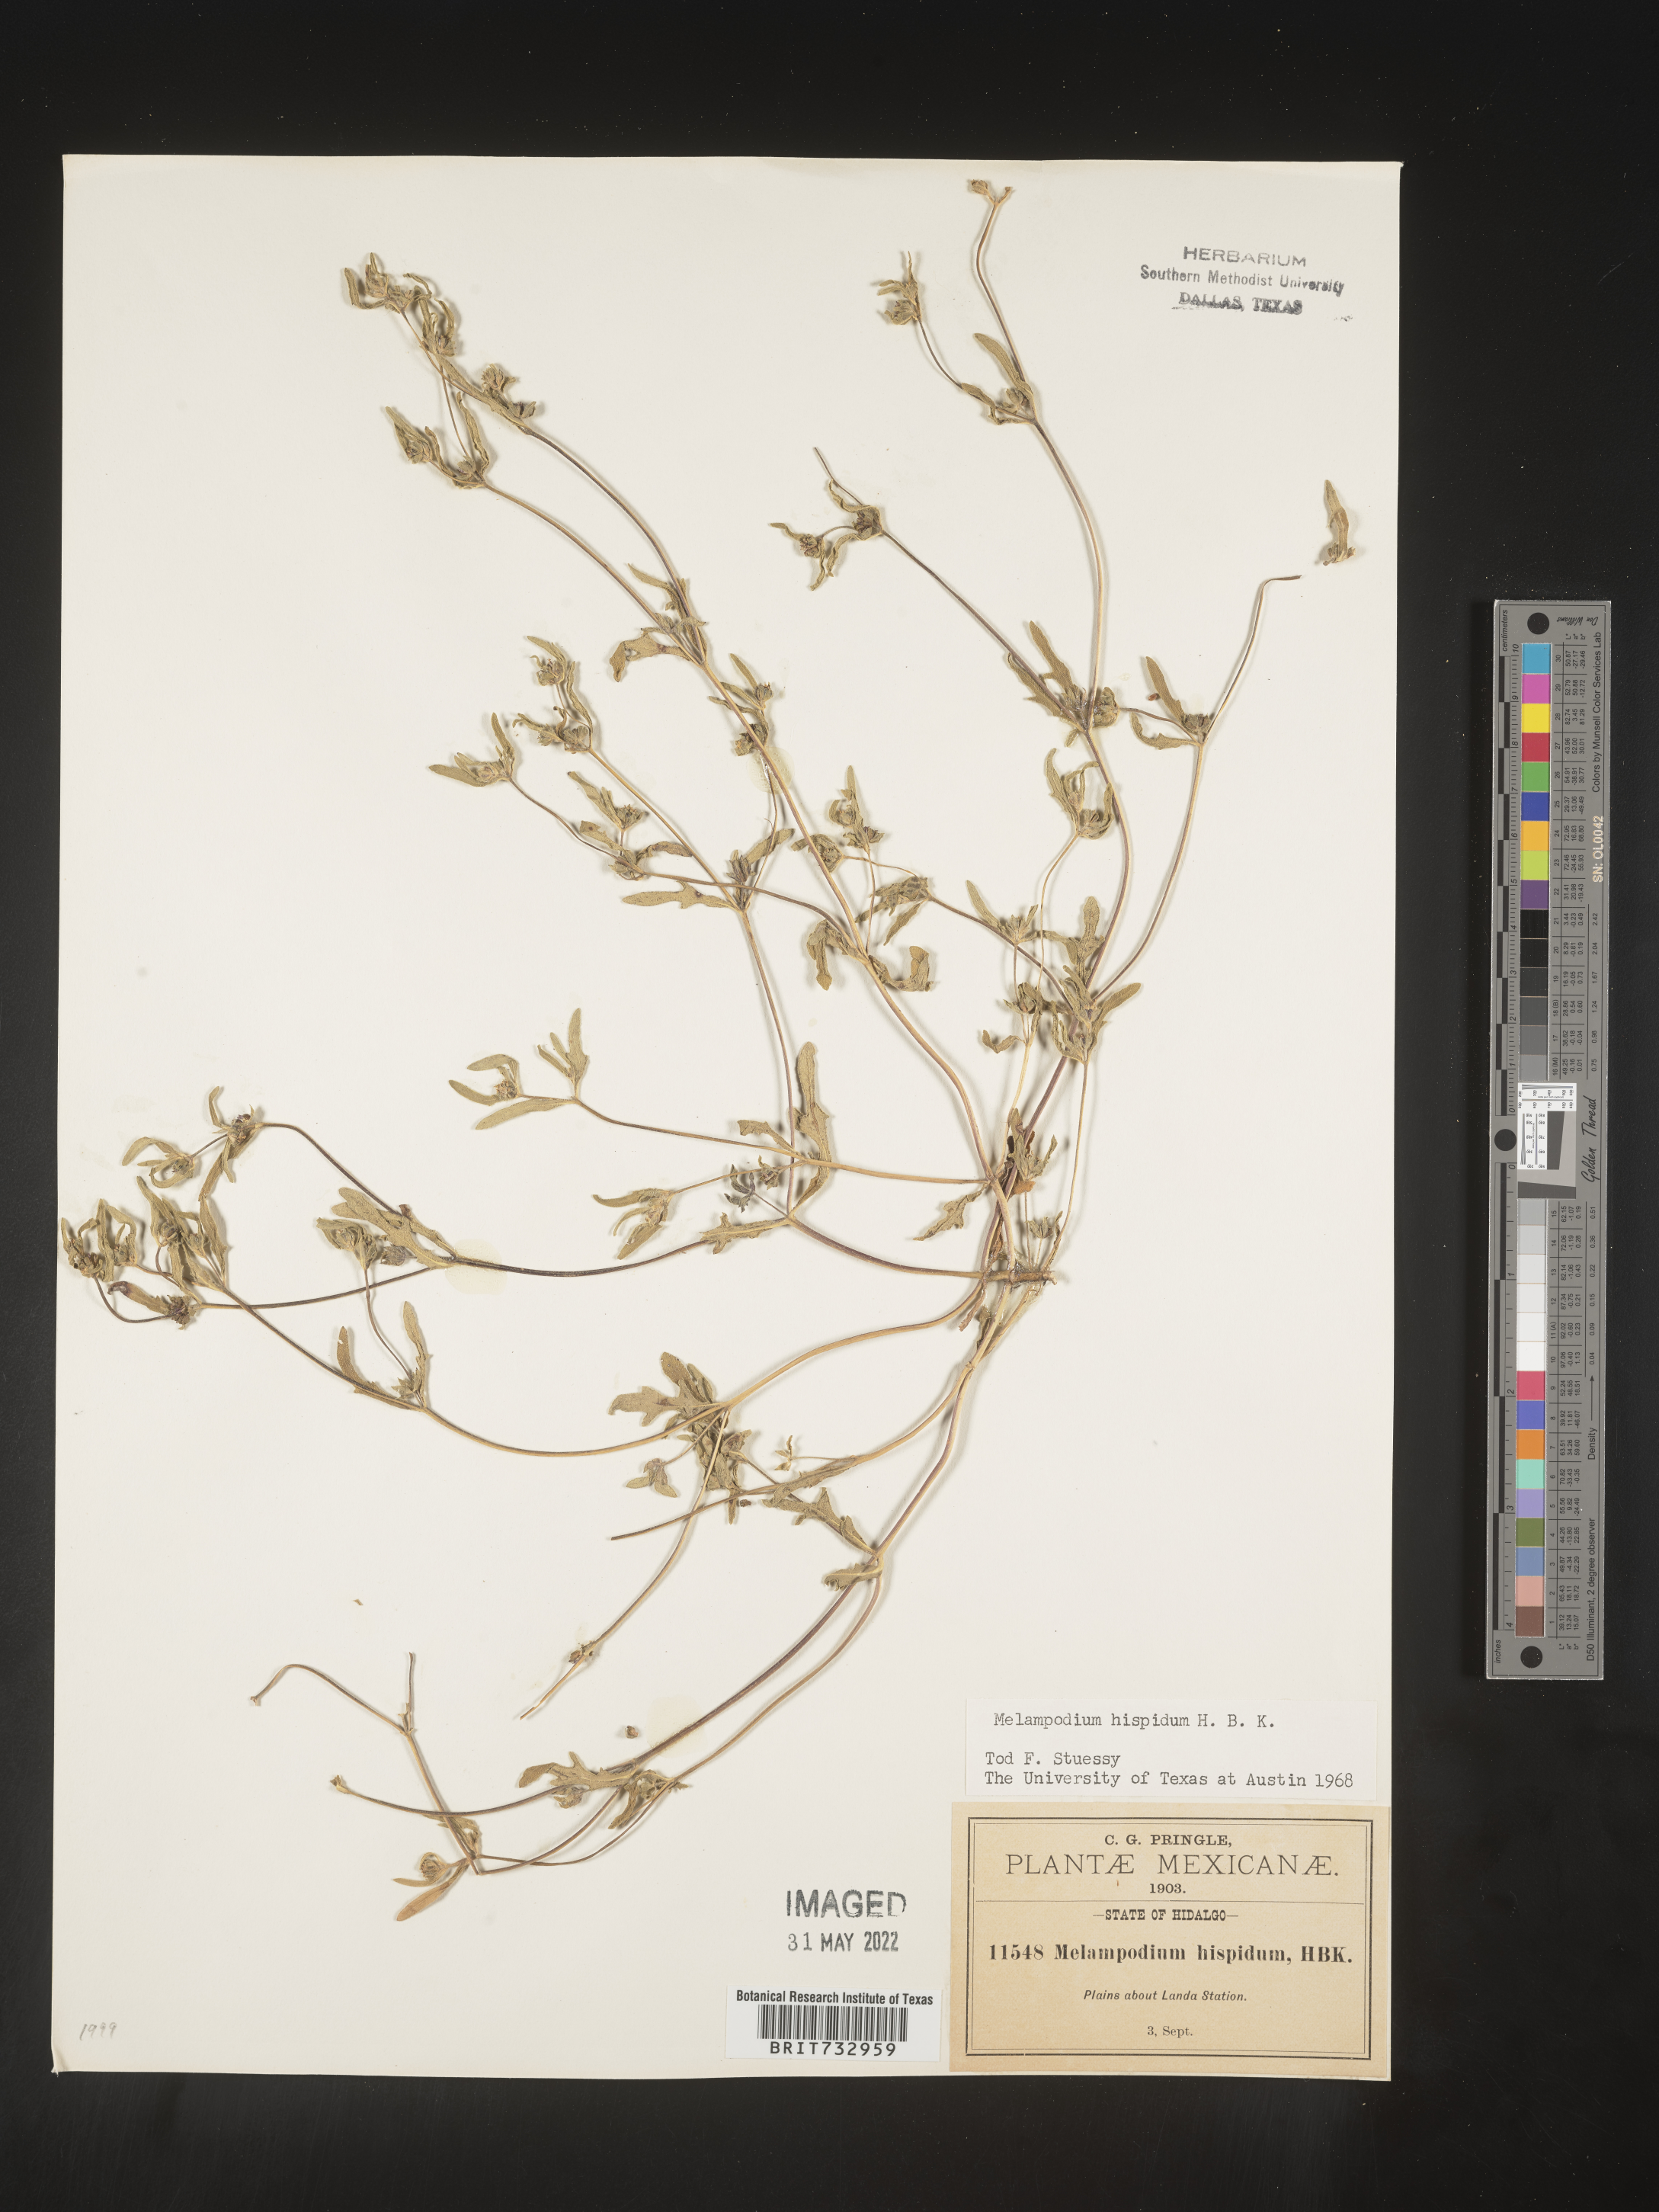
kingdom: Plantae
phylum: Tracheophyta
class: Magnoliopsida
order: Asterales
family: Asteraceae
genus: Melampodium
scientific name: Melampodium sericeum
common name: Rough blackfoot
